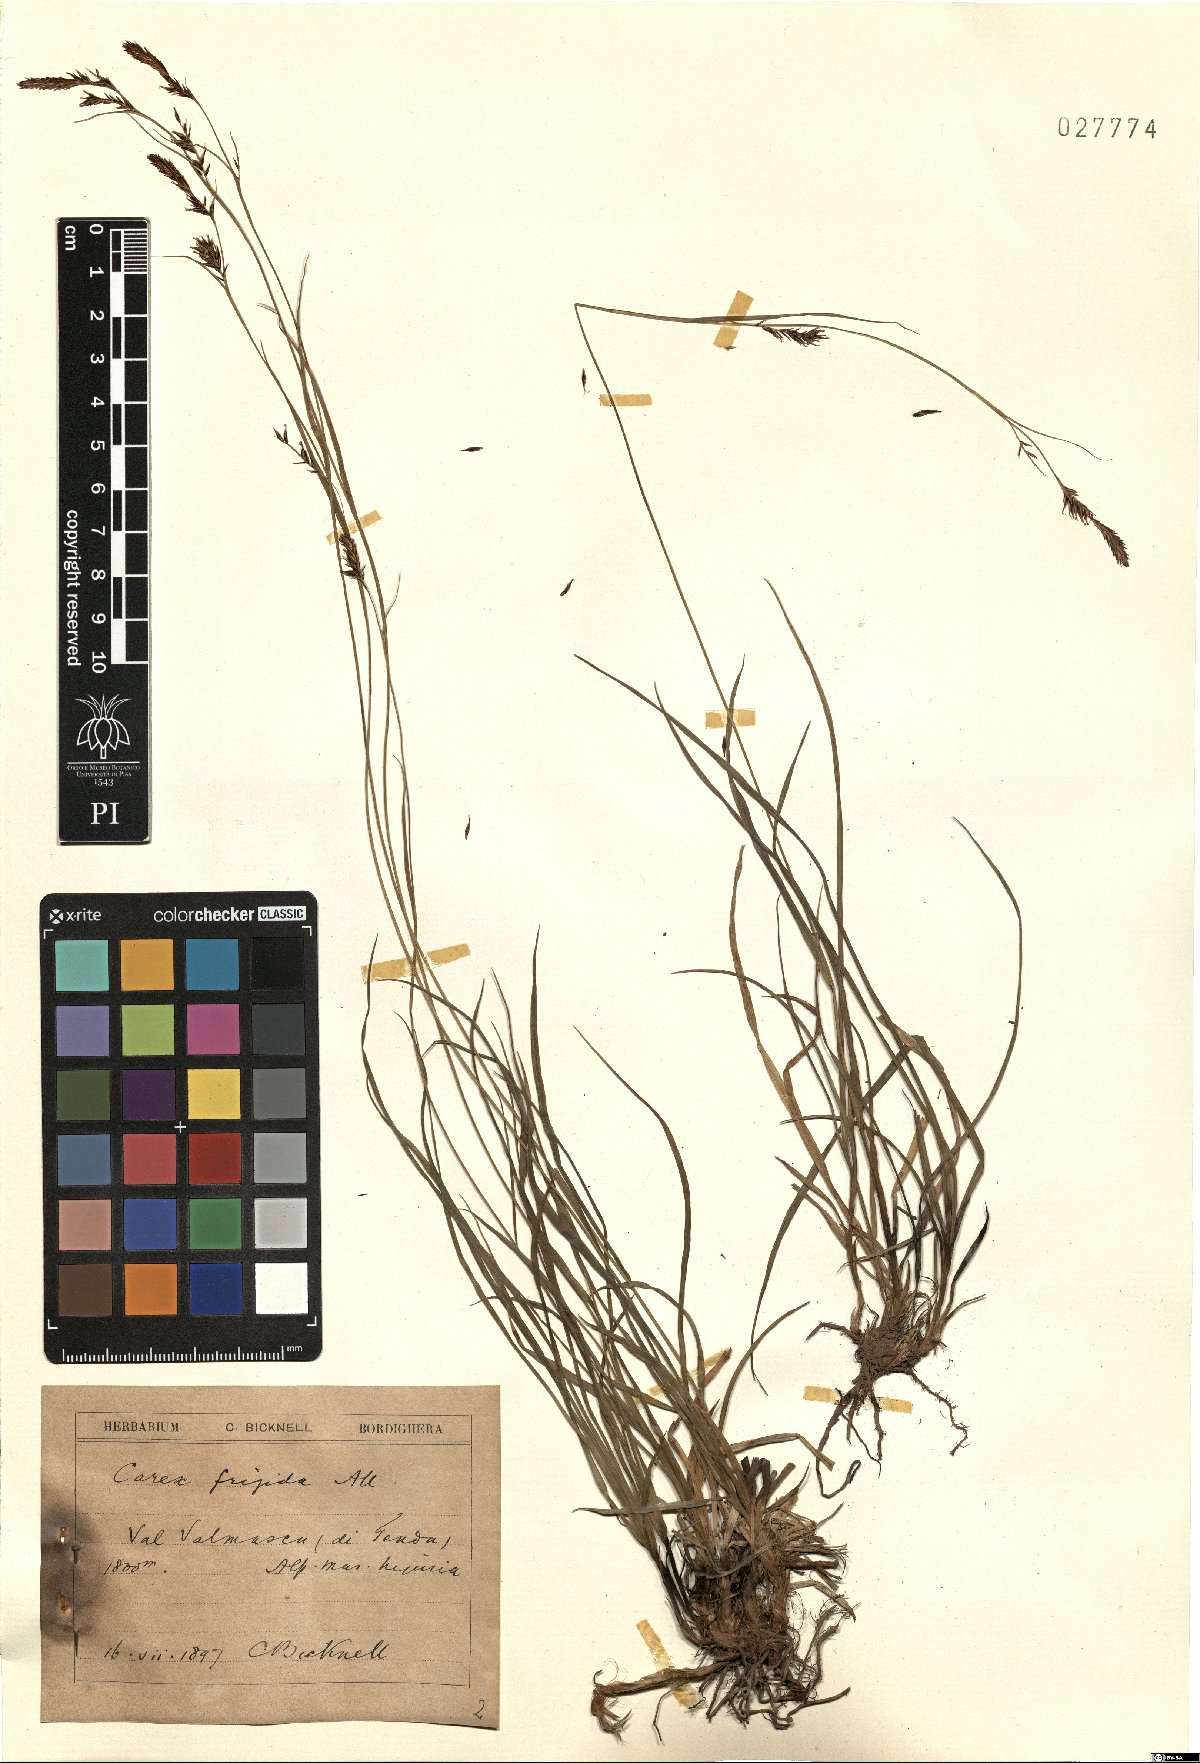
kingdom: Plantae
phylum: Tracheophyta
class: Liliopsida
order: Poales
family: Cyperaceae
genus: Carex
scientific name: Carex frigida
